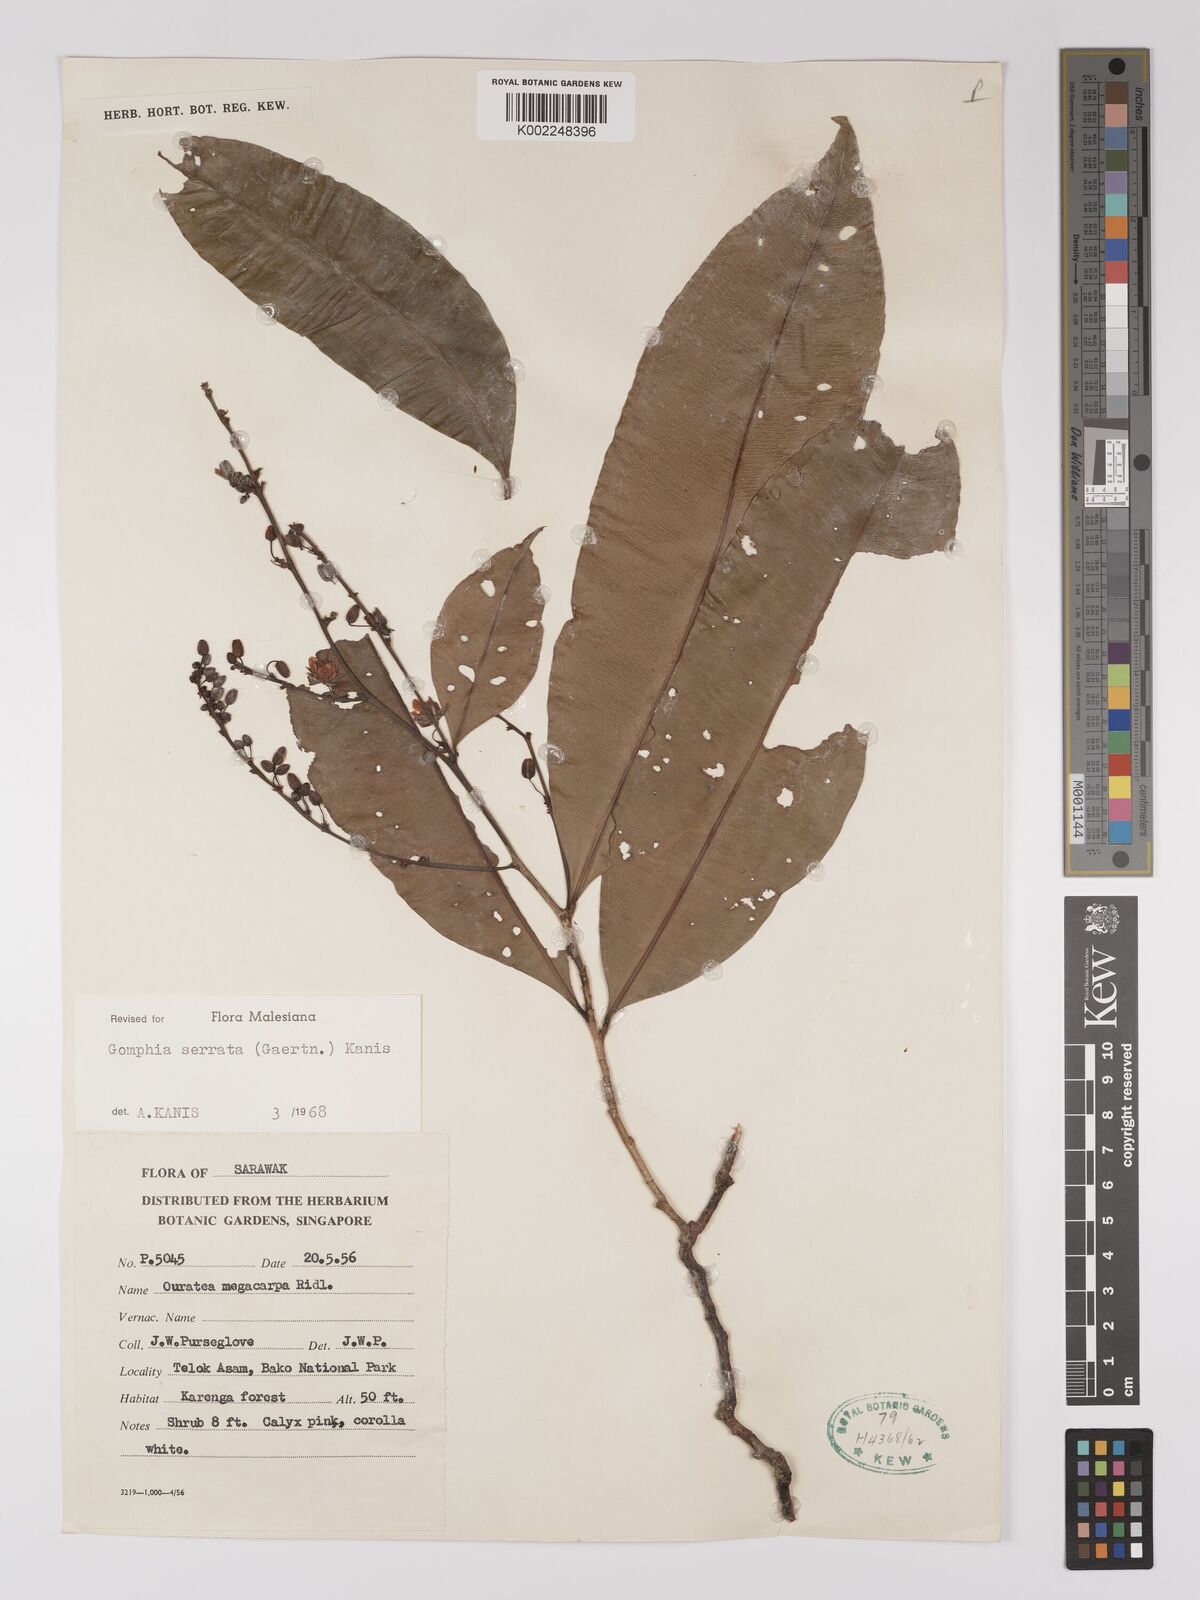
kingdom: Plantae
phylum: Tracheophyta
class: Magnoliopsida
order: Malpighiales
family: Ochnaceae
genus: Gomphia
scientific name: Gomphia serrata
